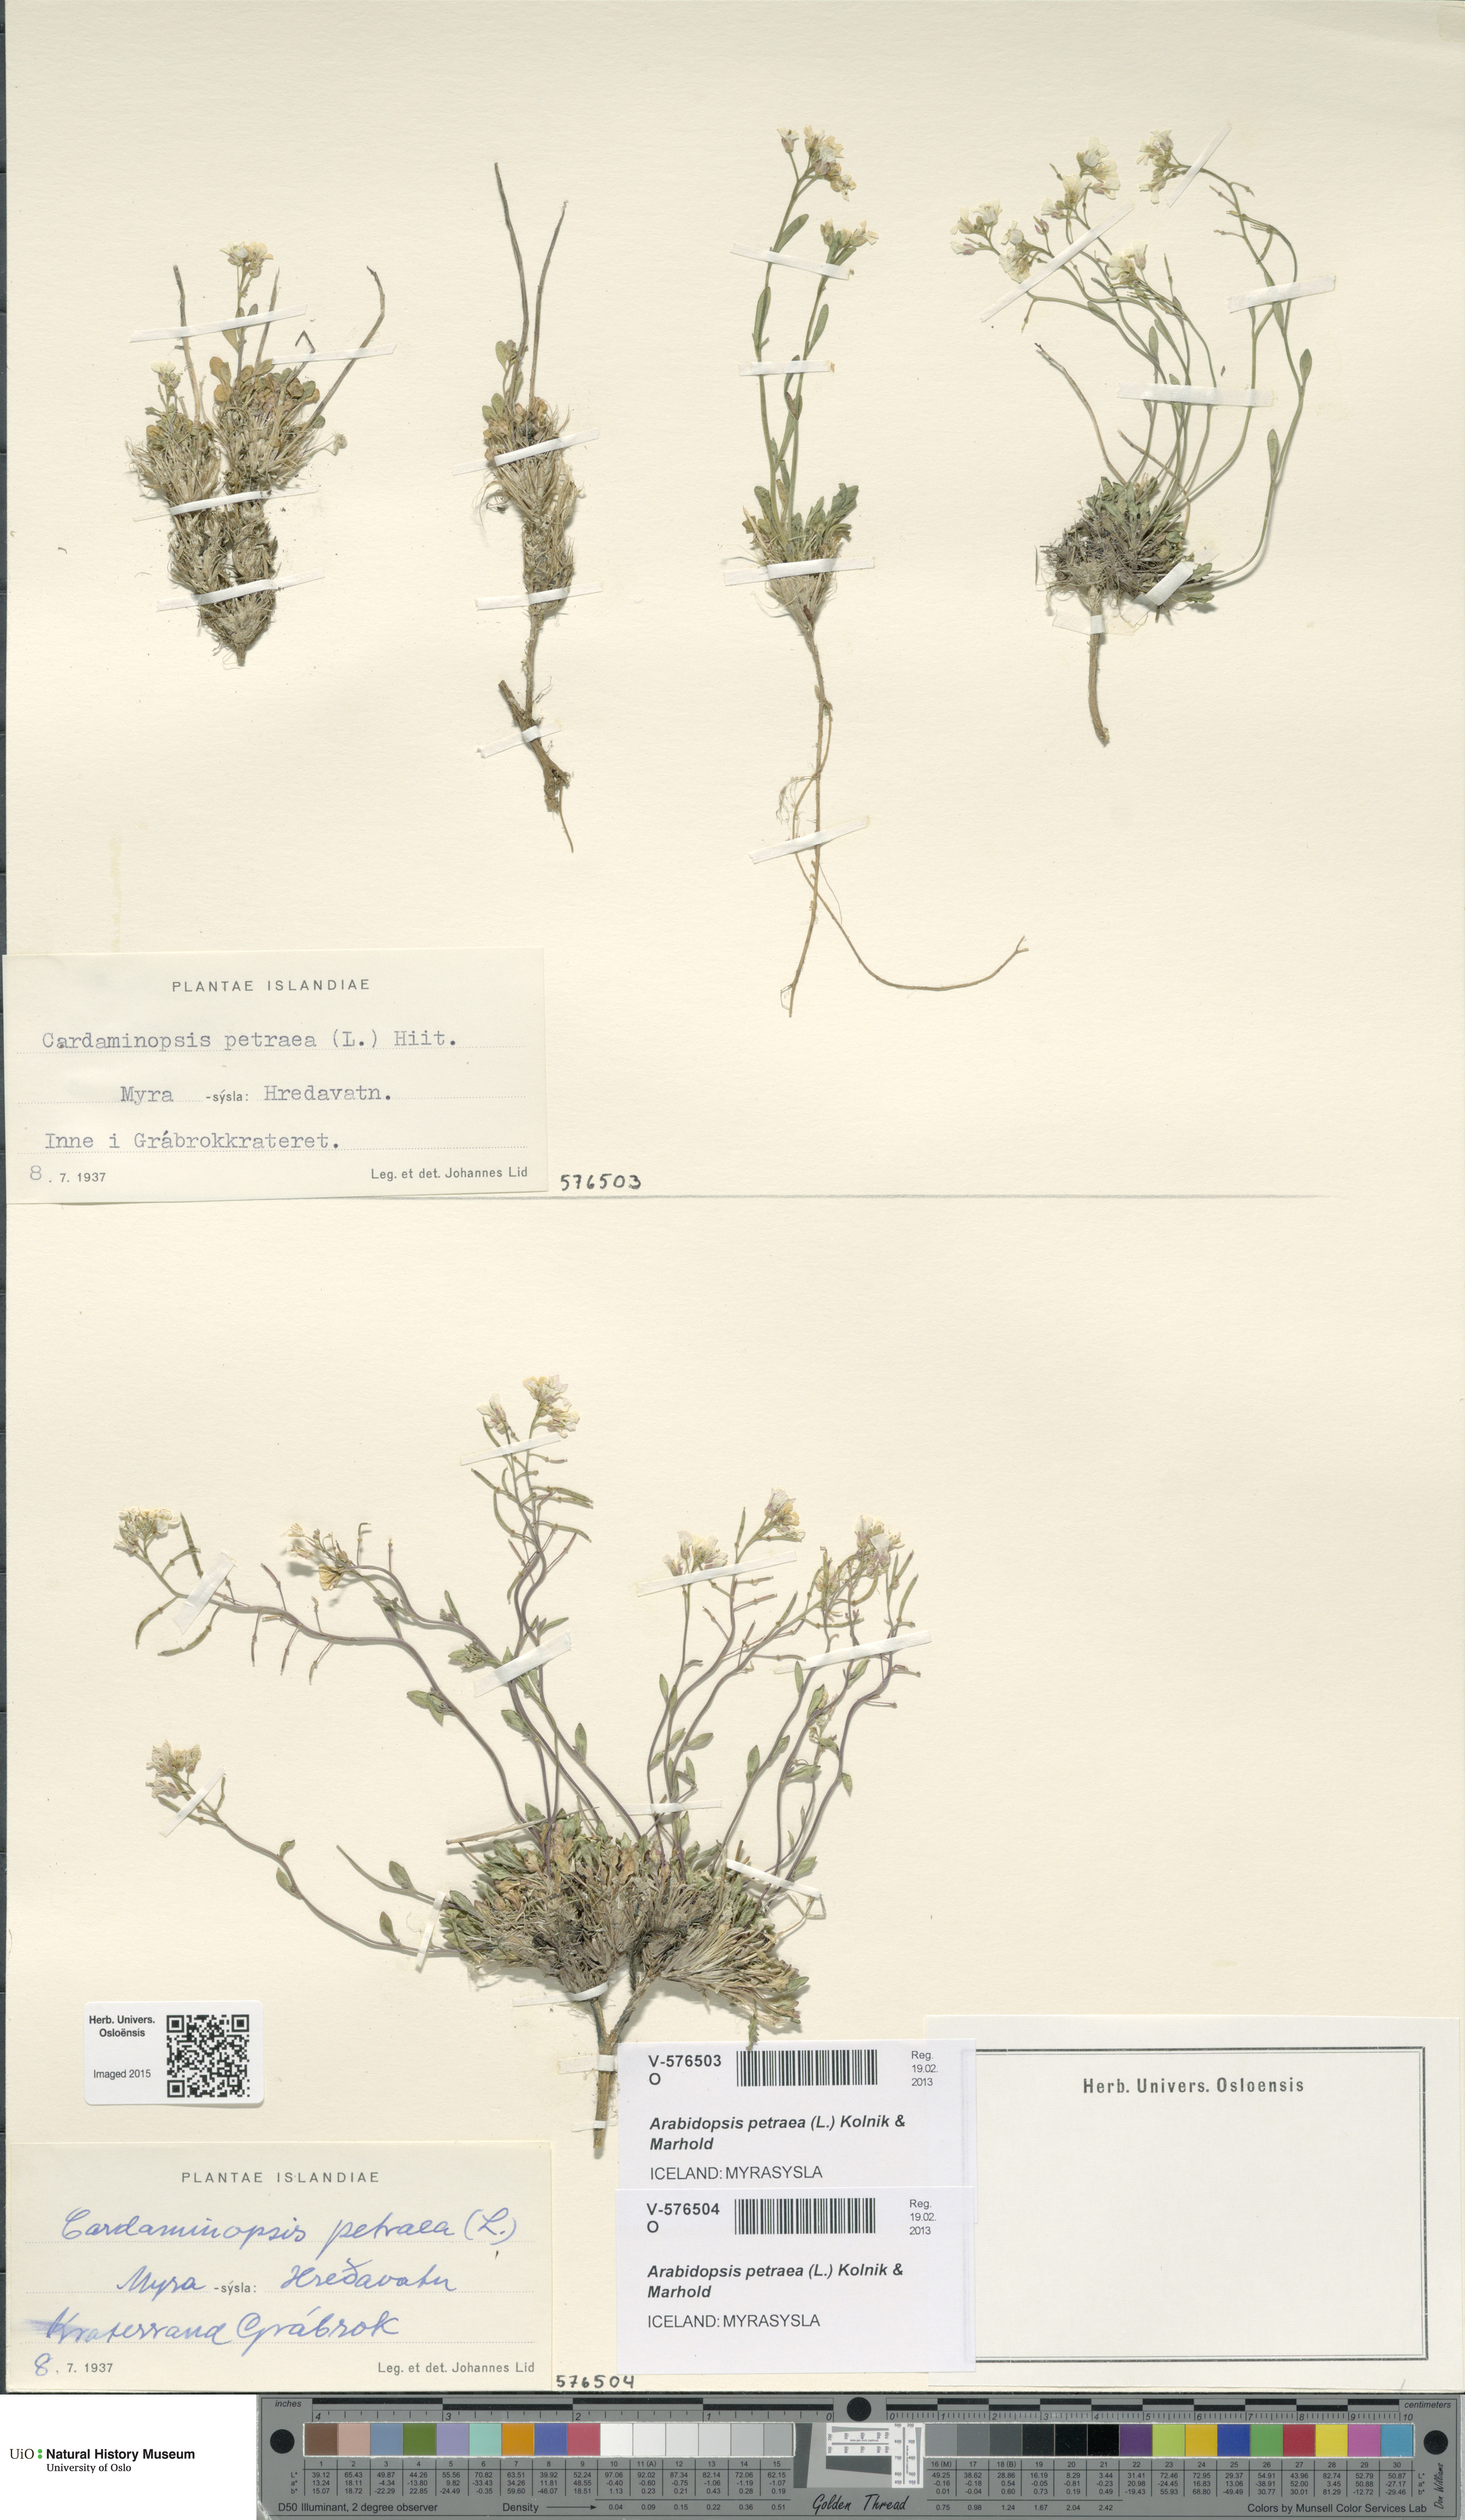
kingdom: Plantae
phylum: Tracheophyta
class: Magnoliopsida
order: Brassicales
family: Brassicaceae
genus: Arabidopsis
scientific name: Arabidopsis petraea
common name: Northern rock-cress
